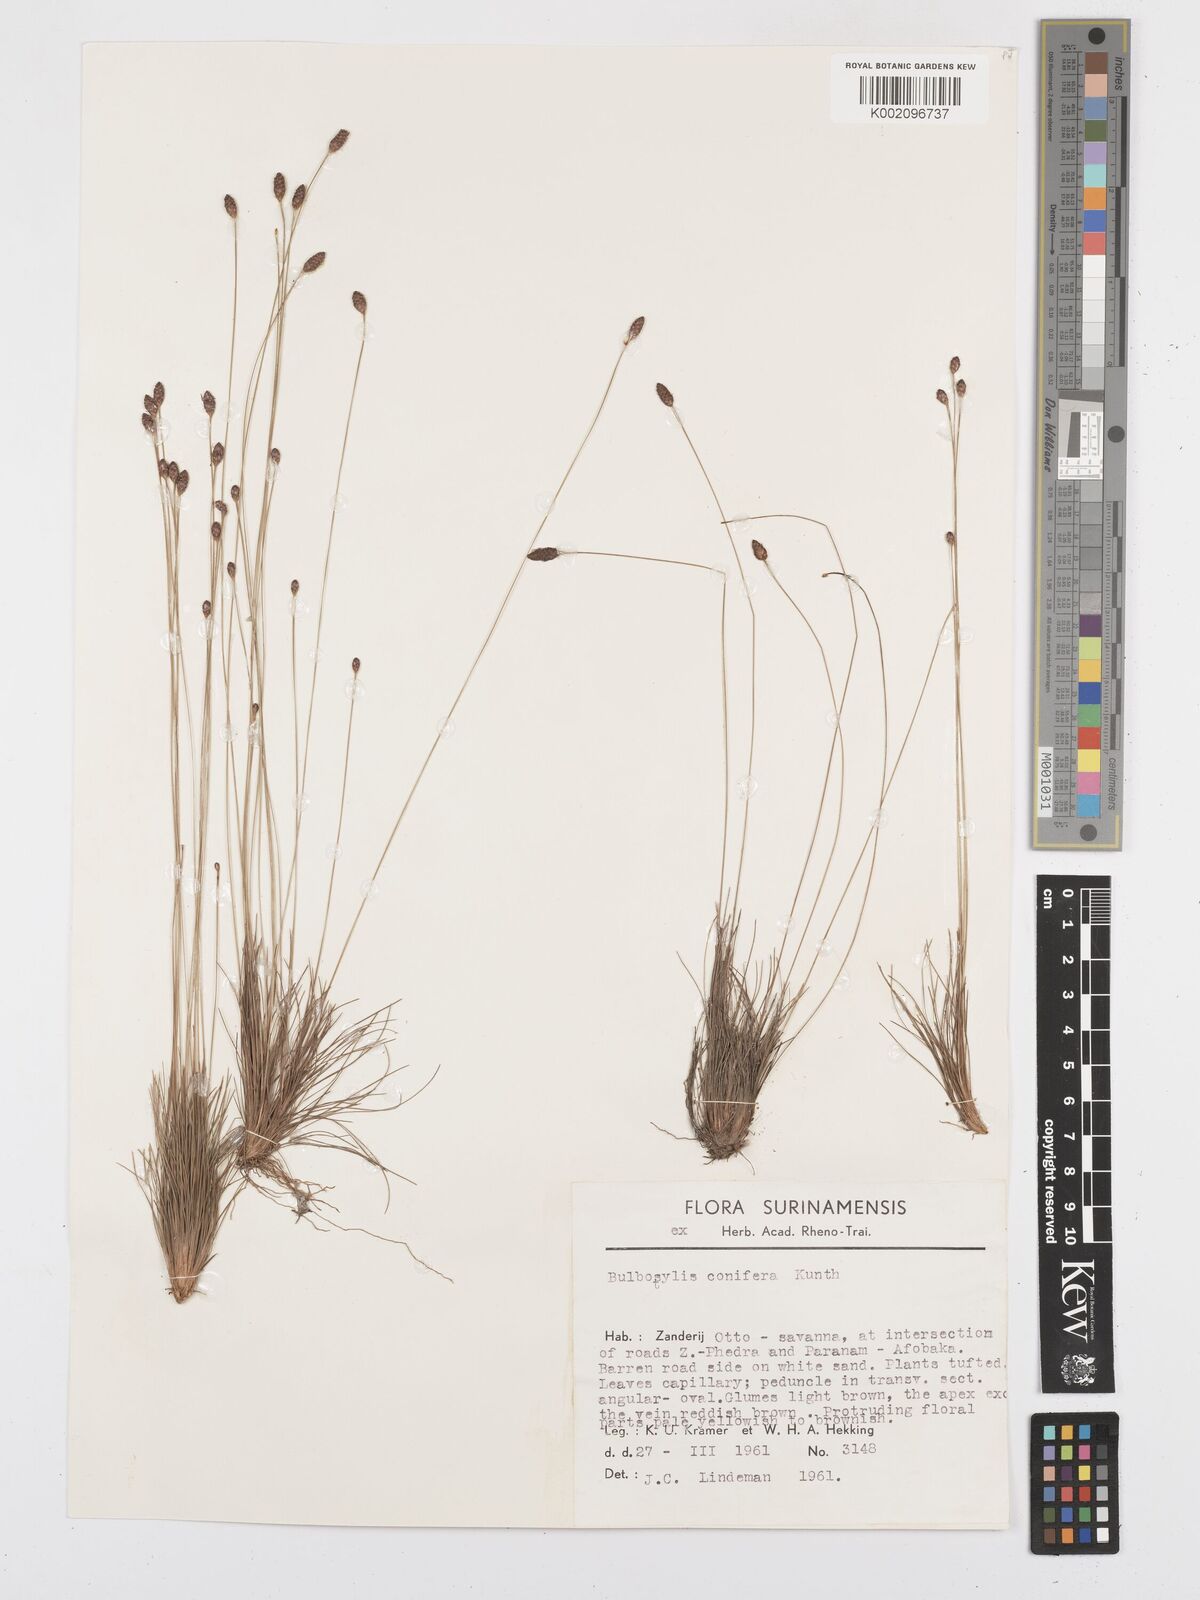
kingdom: Plantae
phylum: Tracheophyta
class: Liliopsida
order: Poales
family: Cyperaceae
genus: Bulbostylis
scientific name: Bulbostylis conifera
